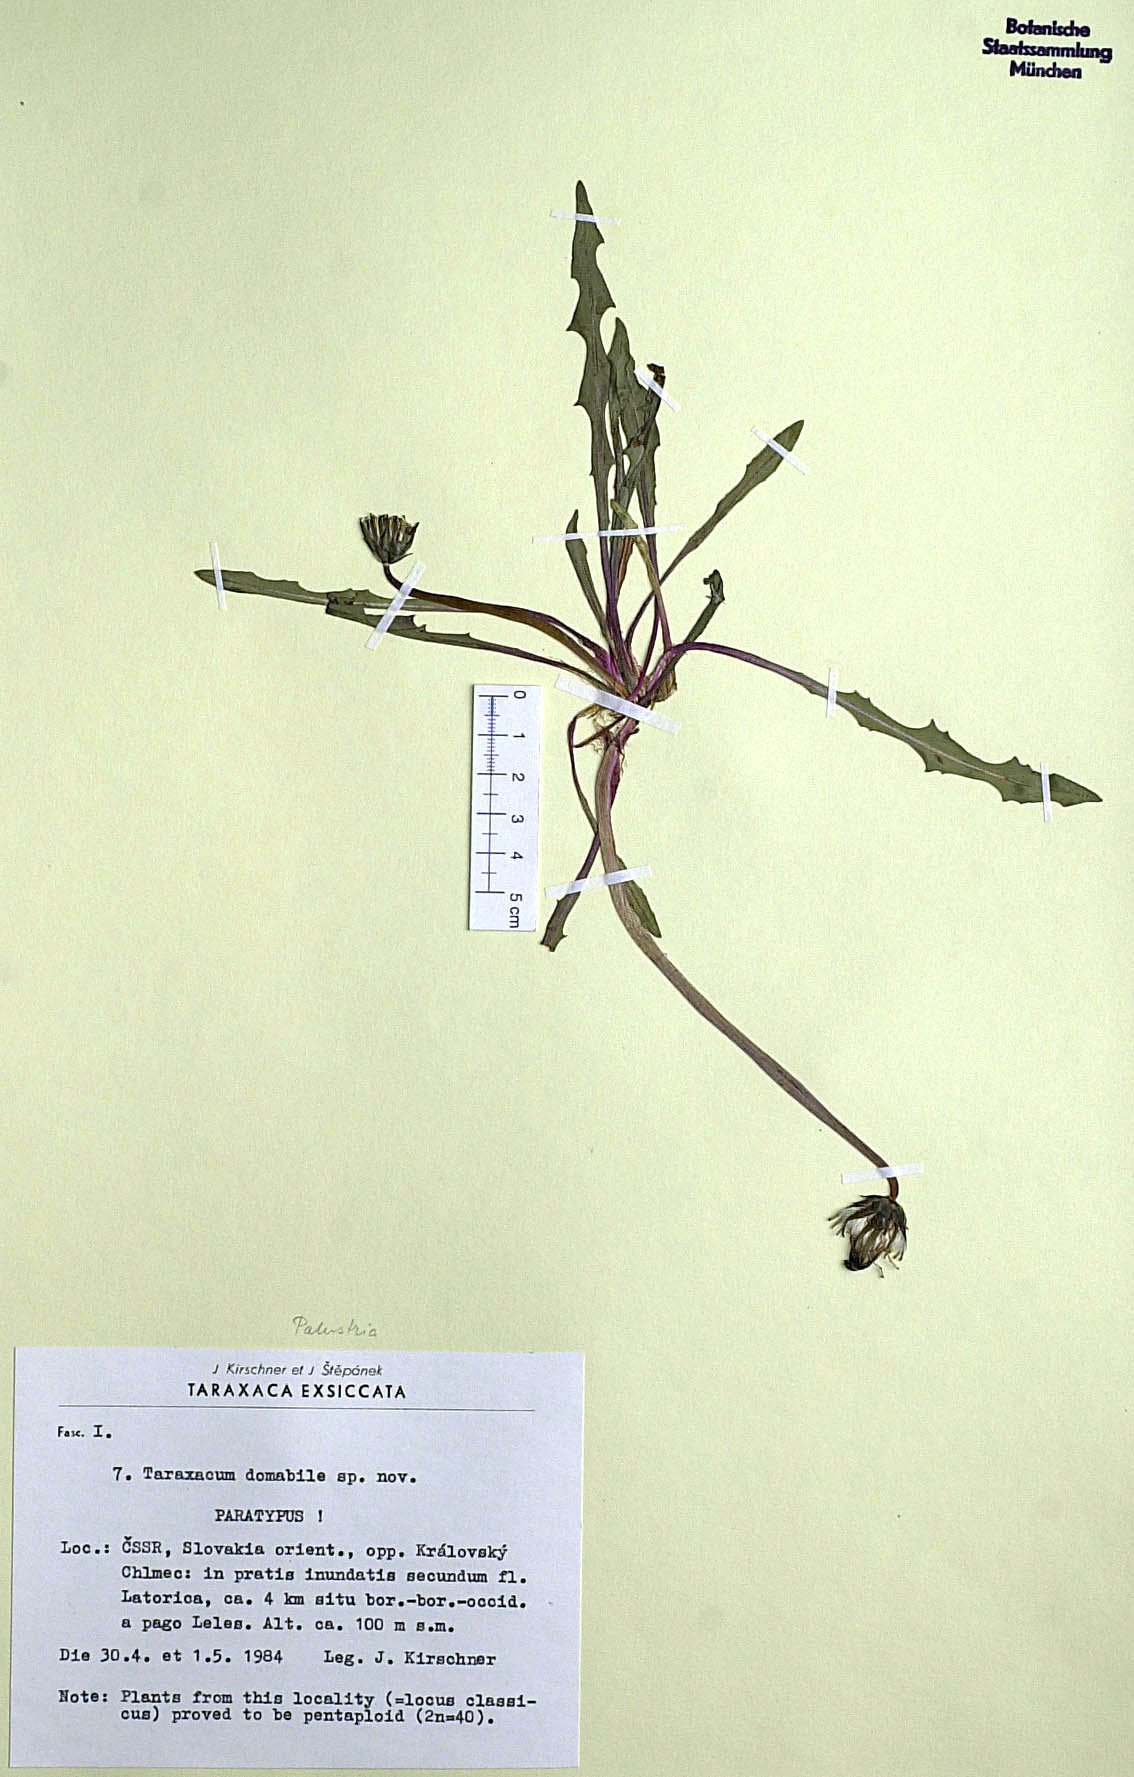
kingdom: Plantae
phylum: Tracheophyta
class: Magnoliopsida
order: Asterales
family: Asteraceae
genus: Taraxacum
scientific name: Taraxacum domabile
